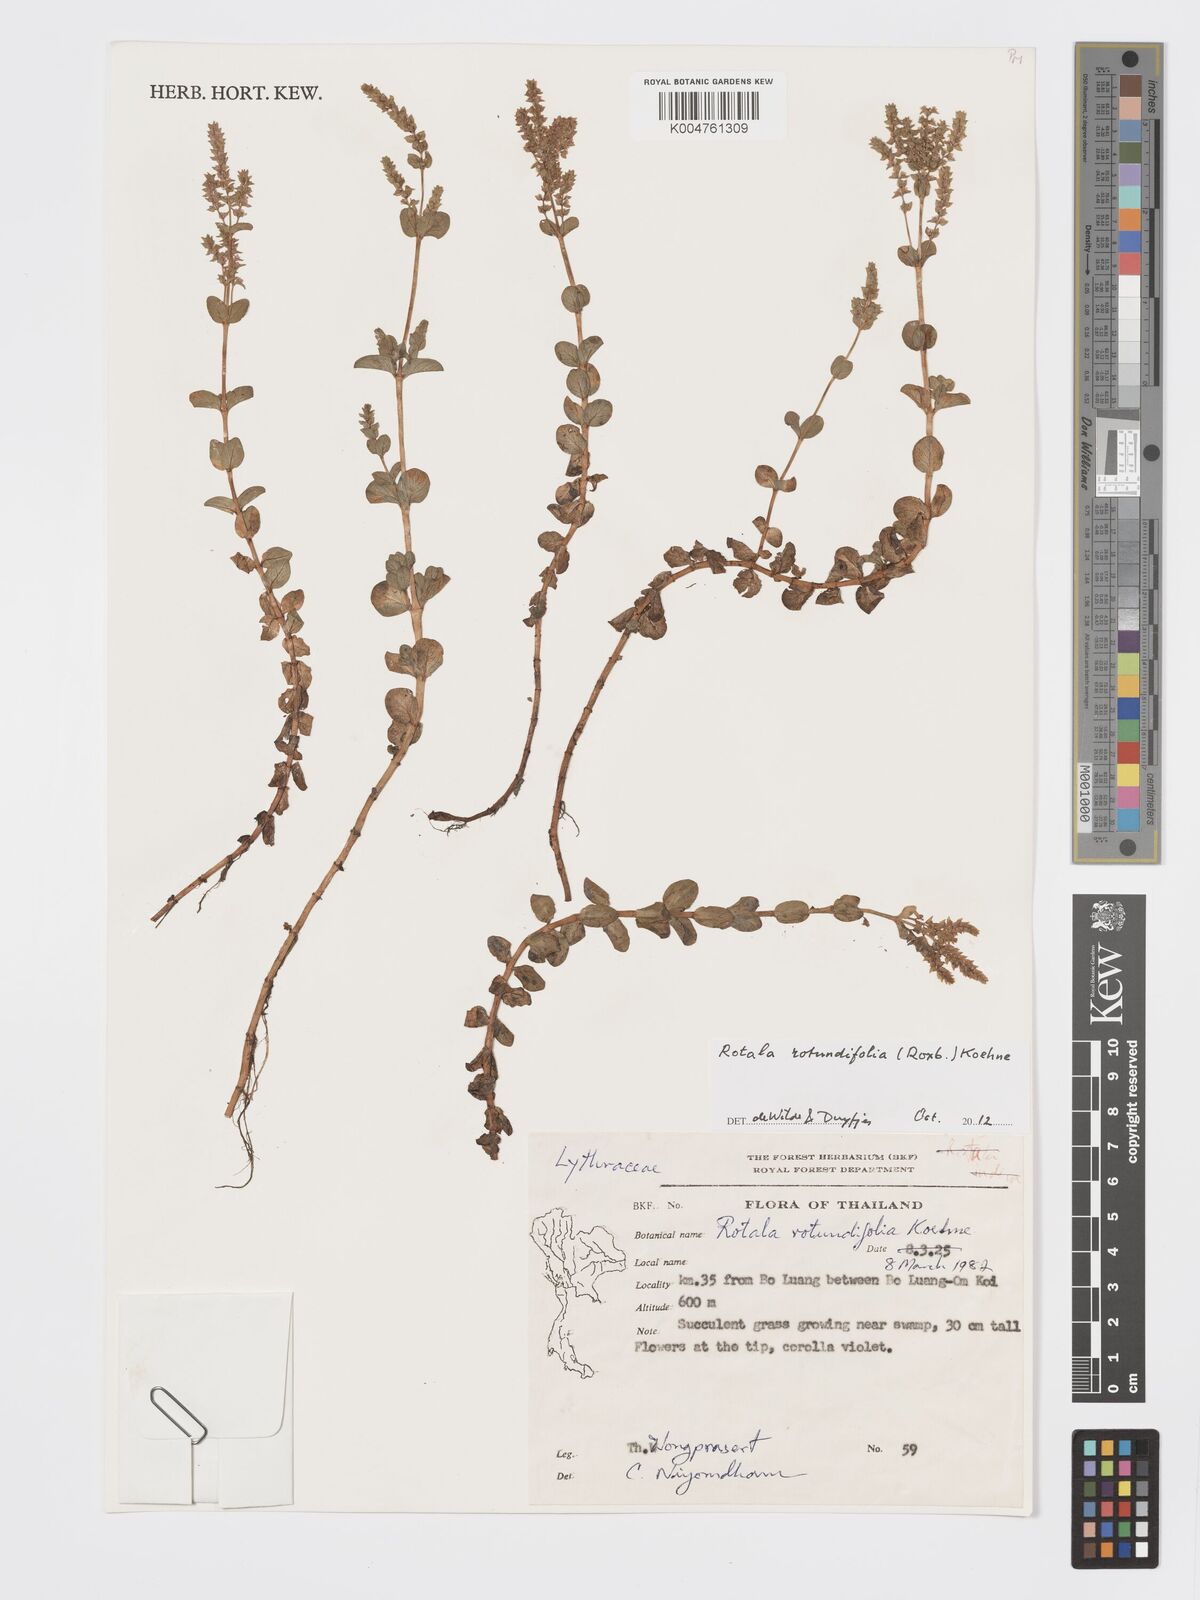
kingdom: Plantae
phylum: Tracheophyta
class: Magnoliopsida
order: Myrtales
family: Lythraceae
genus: Rotala
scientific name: Rotala rotundifolia
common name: Roundleaf toothcup
